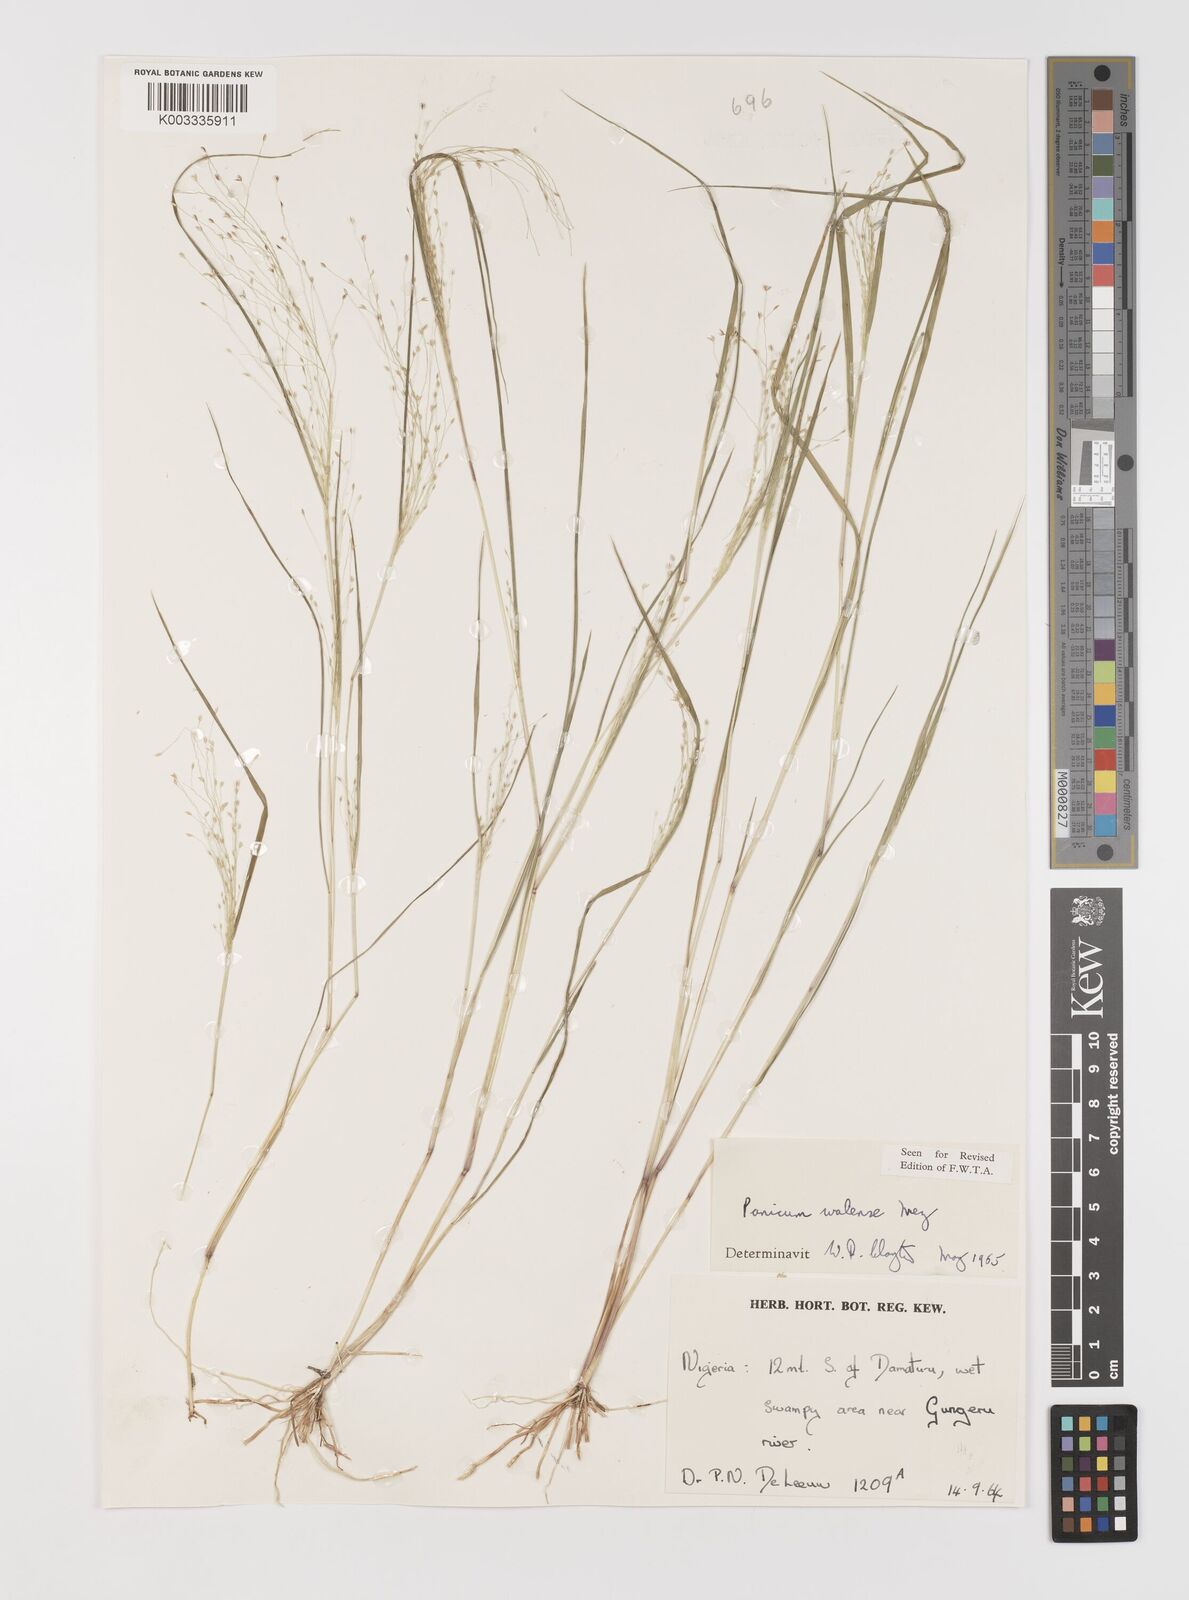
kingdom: Plantae
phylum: Tracheophyta
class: Liliopsida
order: Poales
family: Poaceae
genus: Panicum
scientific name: Panicum humile
